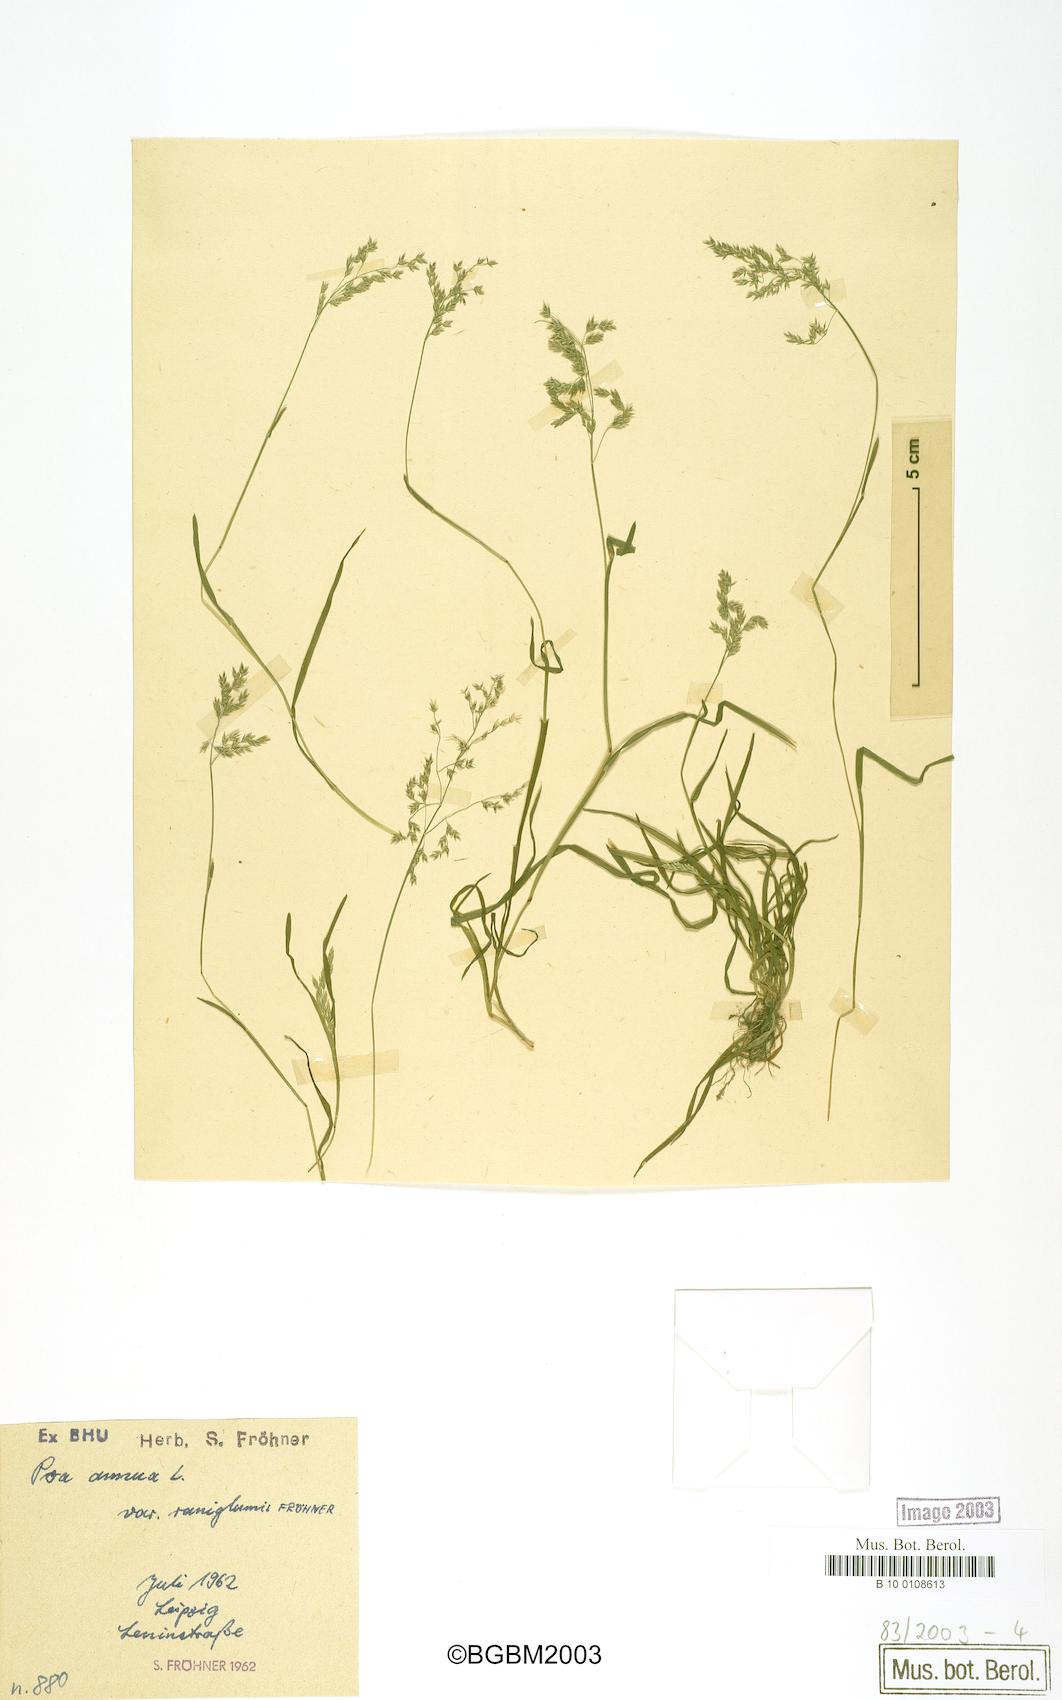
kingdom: Plantae
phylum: Tracheophyta
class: Liliopsida
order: Poales
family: Poaceae
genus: Poa
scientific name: Poa annua
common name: Annual bluegrass
